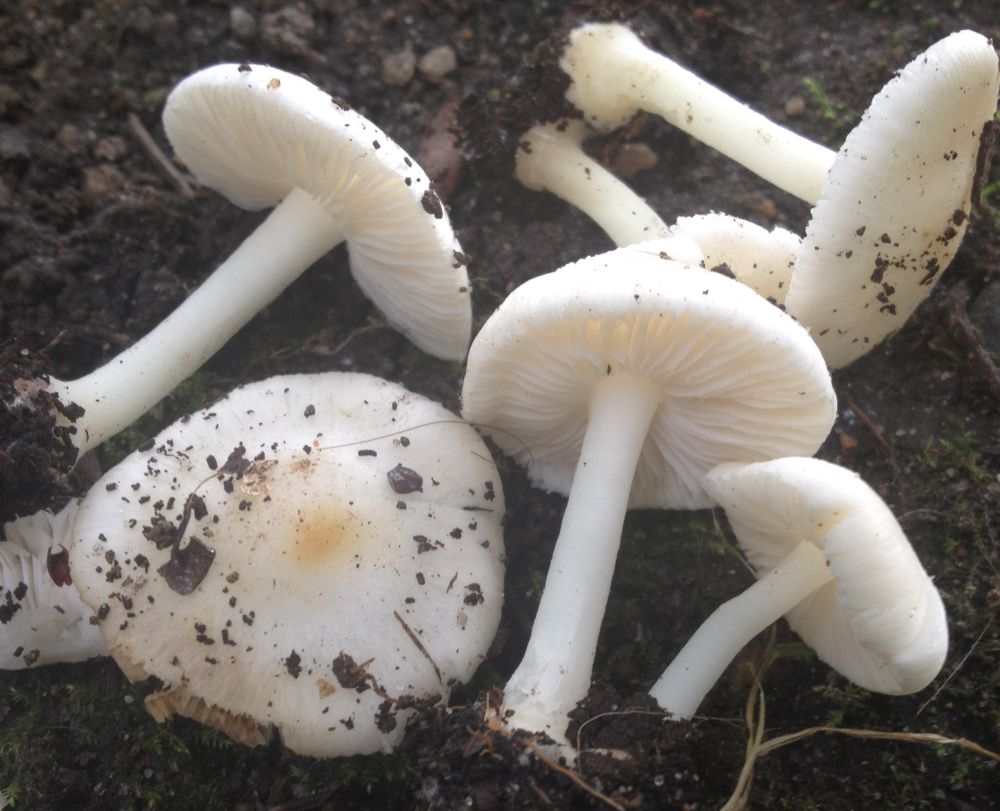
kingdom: Fungi
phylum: Basidiomycota
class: Agaricomycetes
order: Agaricales
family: Inocybaceae
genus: Inocybe
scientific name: Inocybe
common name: almindelig trævlhat
